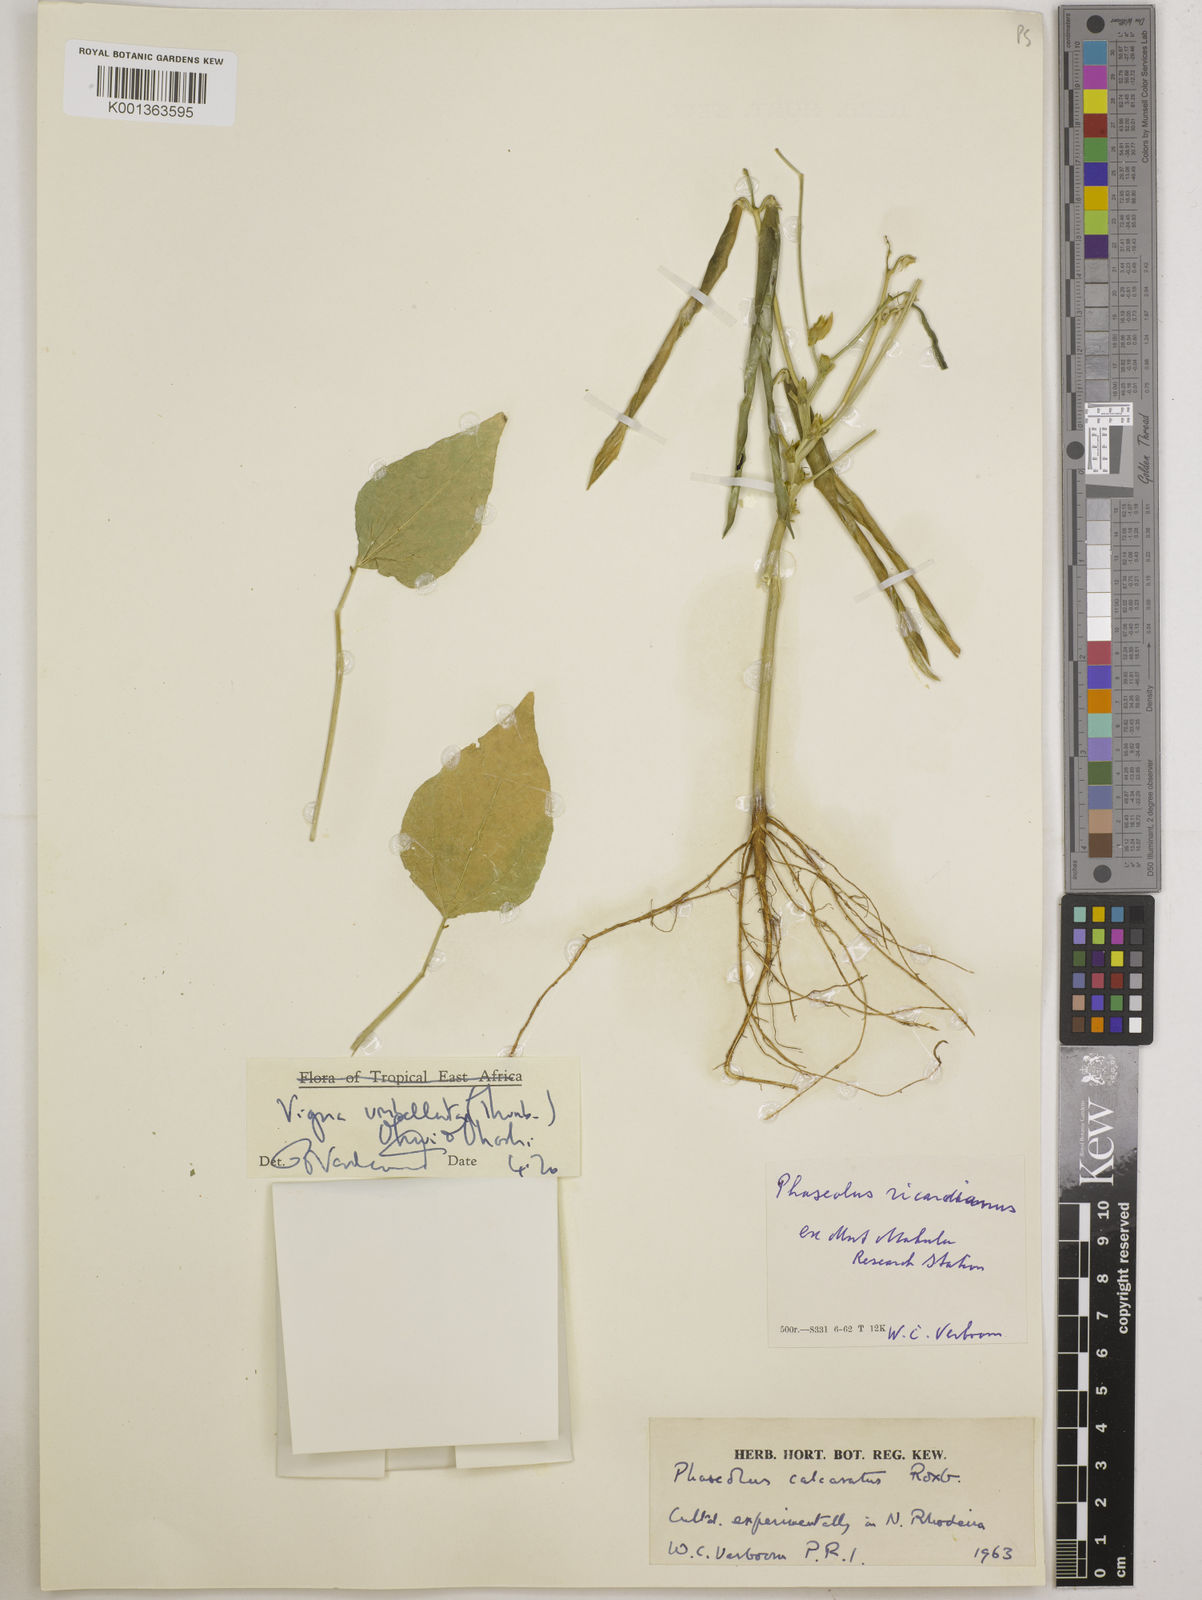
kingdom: Plantae
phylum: Tracheophyta
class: Magnoliopsida
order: Fabales
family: Fabaceae
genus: Vigna
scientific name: Vigna umbellata
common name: Oriental-bean
